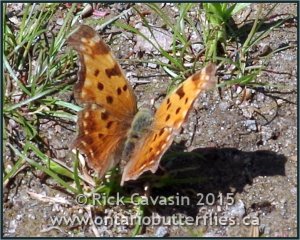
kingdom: Animalia
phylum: Arthropoda
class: Insecta
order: Lepidoptera
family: Nymphalidae
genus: Polygonia
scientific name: Polygonia
